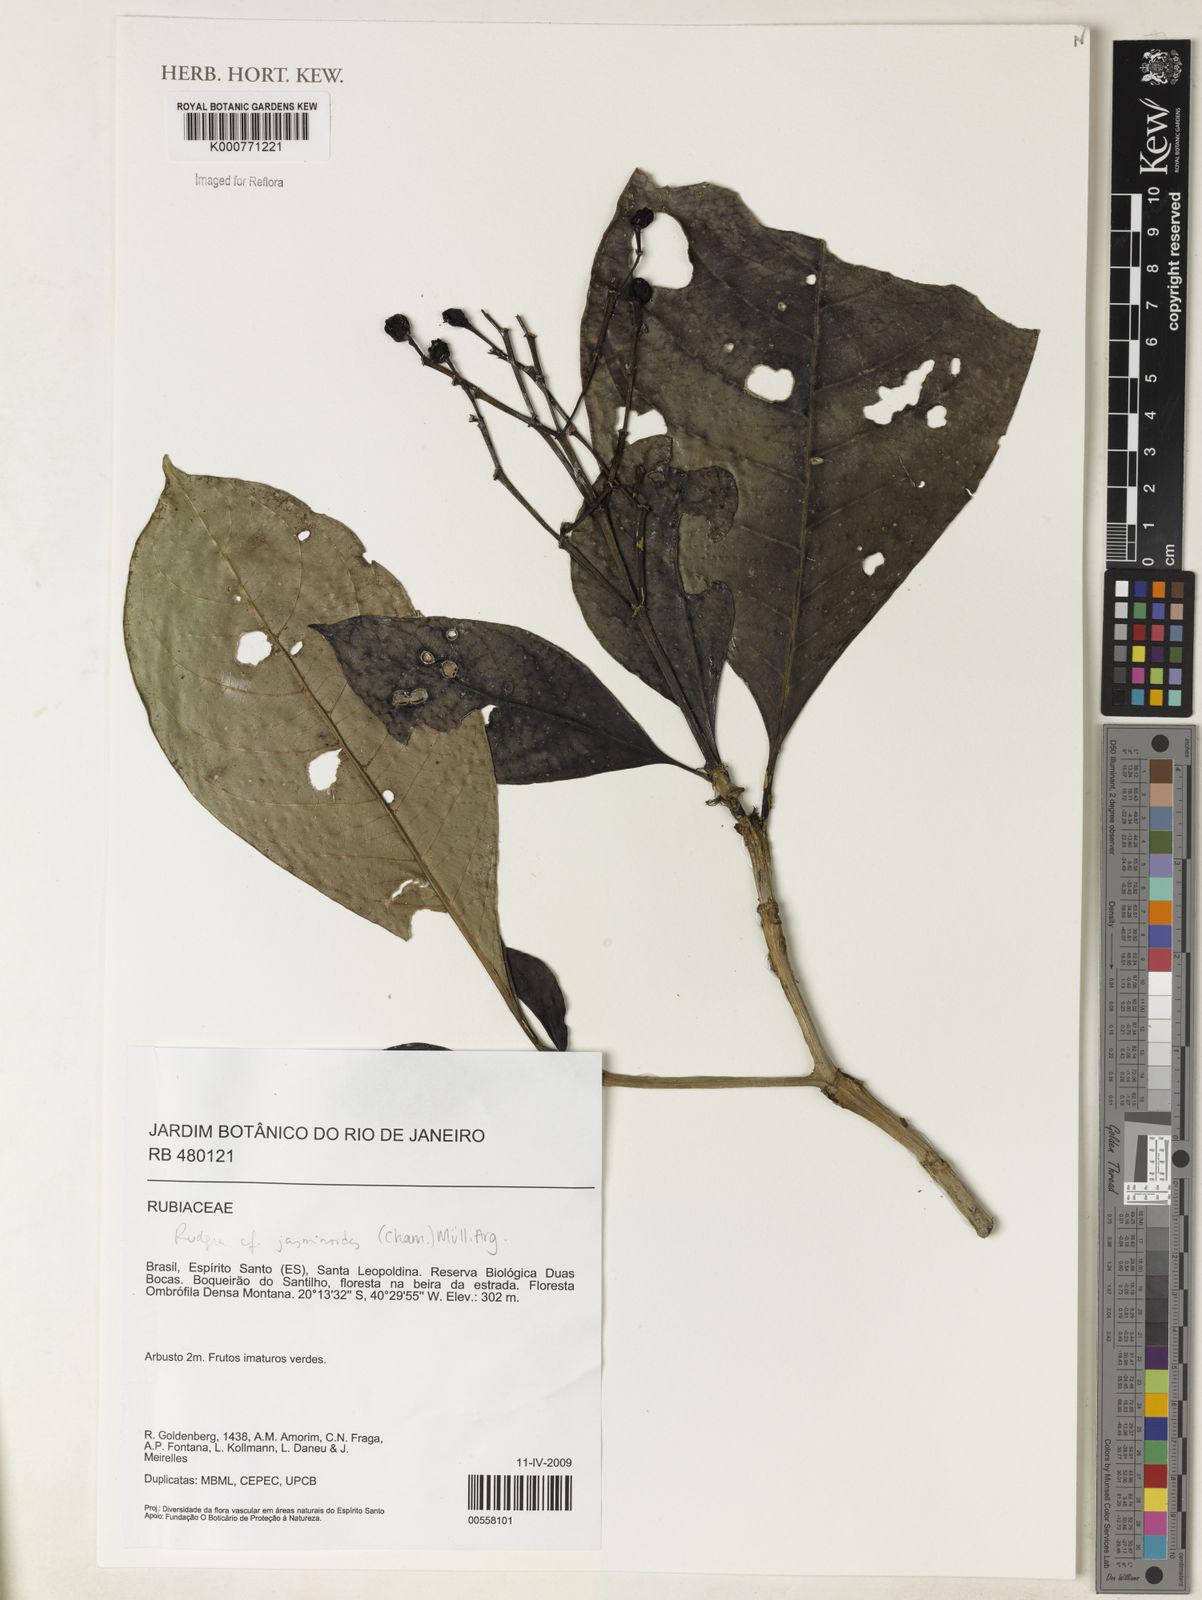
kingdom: Plantae
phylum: Tracheophyta
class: Magnoliopsida
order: Gentianales
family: Rubiaceae
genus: Rudgea
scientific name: Rudgea
